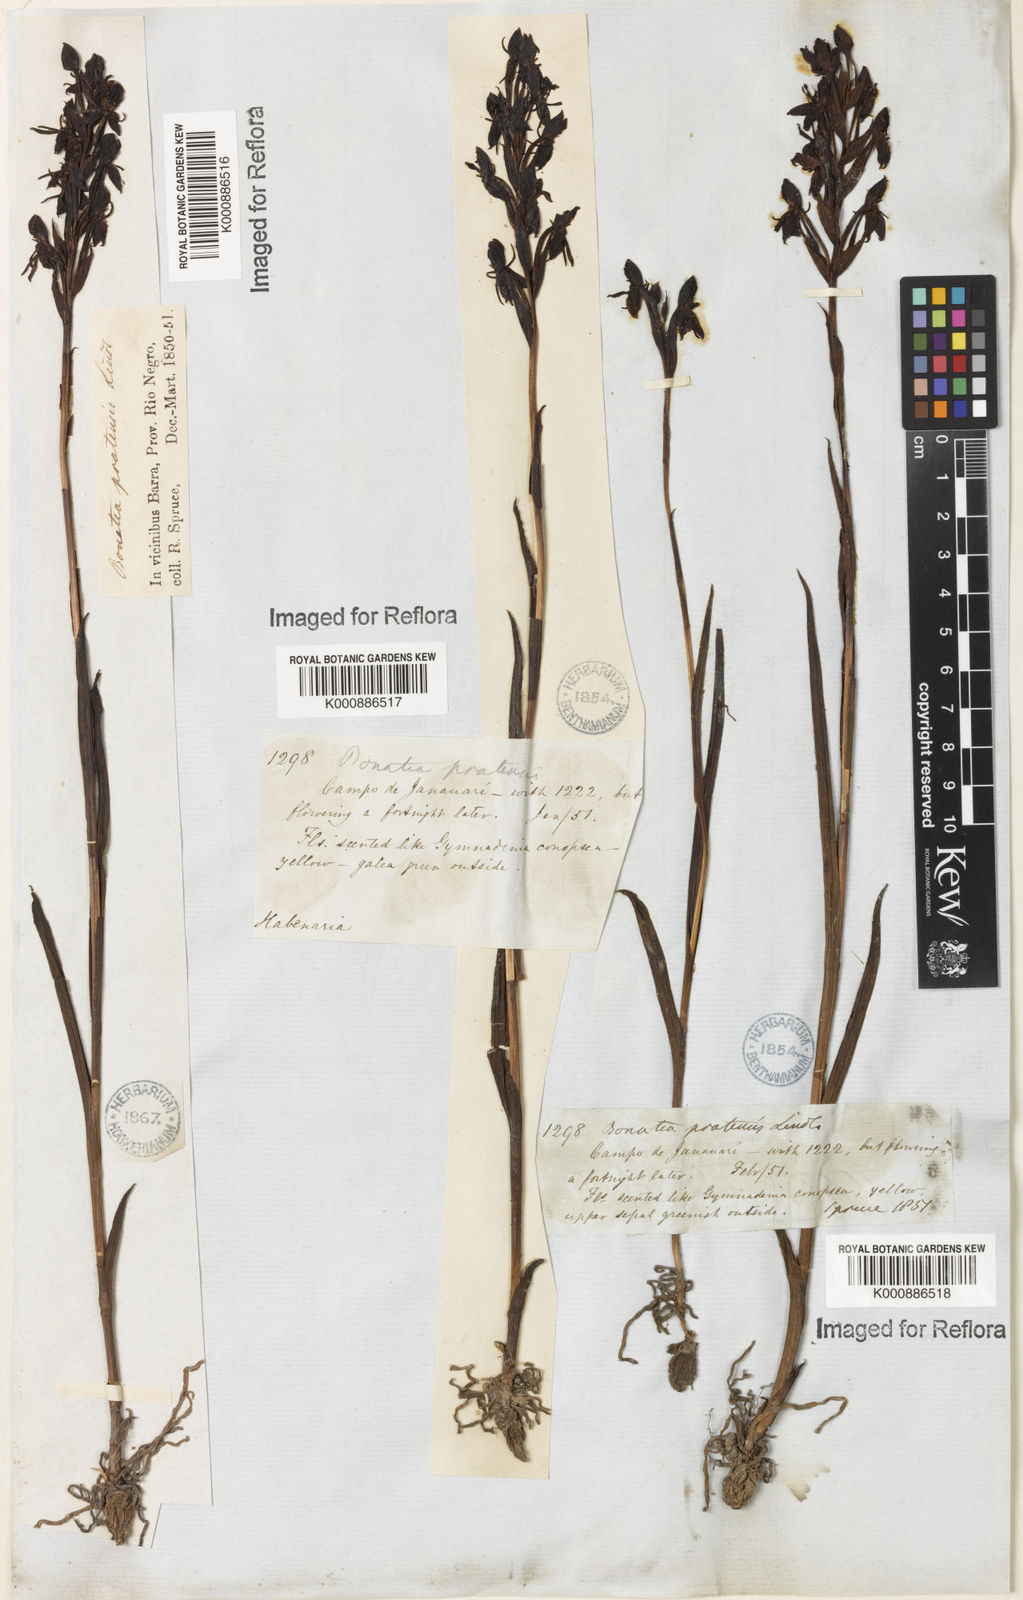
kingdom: Plantae
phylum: Tracheophyta
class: Liliopsida
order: Asparagales
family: Orchidaceae
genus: Habenaria
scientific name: Habenaria pratensis
